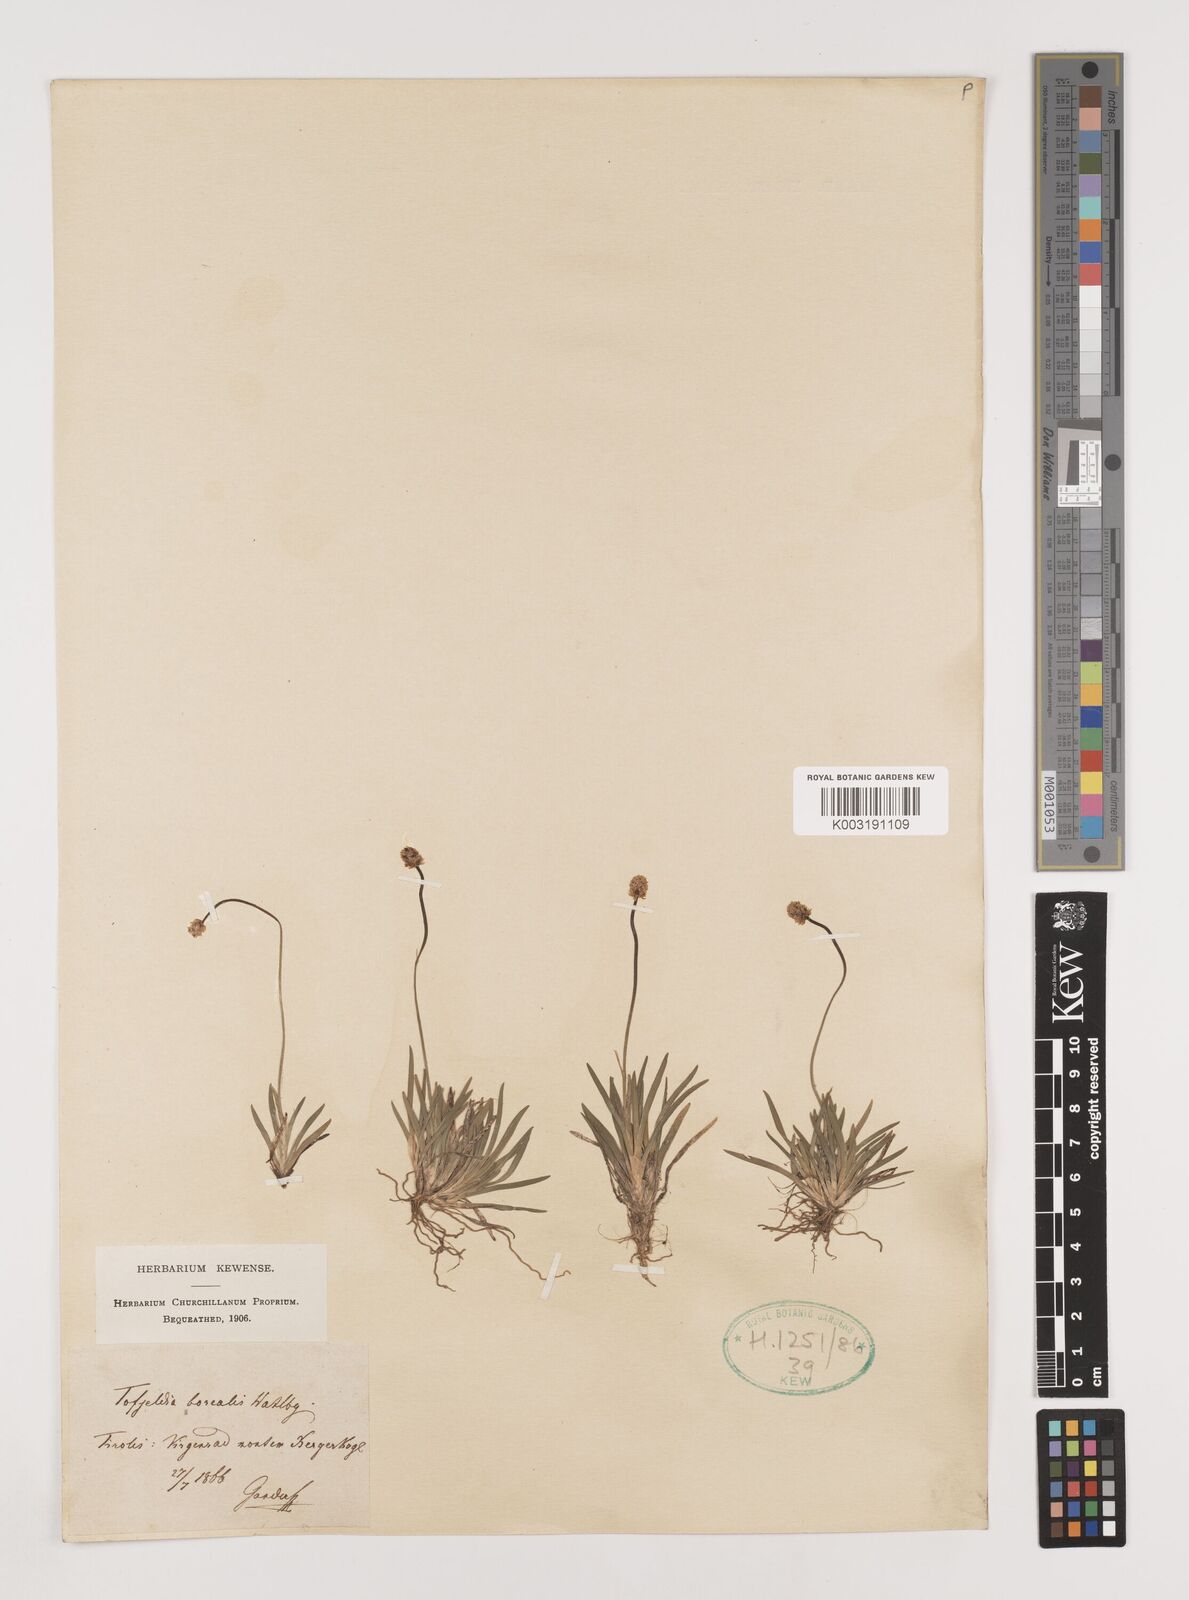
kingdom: Plantae
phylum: Tracheophyta
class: Liliopsida
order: Alismatales
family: Tofieldiaceae
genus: Tofieldia
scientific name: Tofieldia pusilla
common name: Scottish false asphodel
